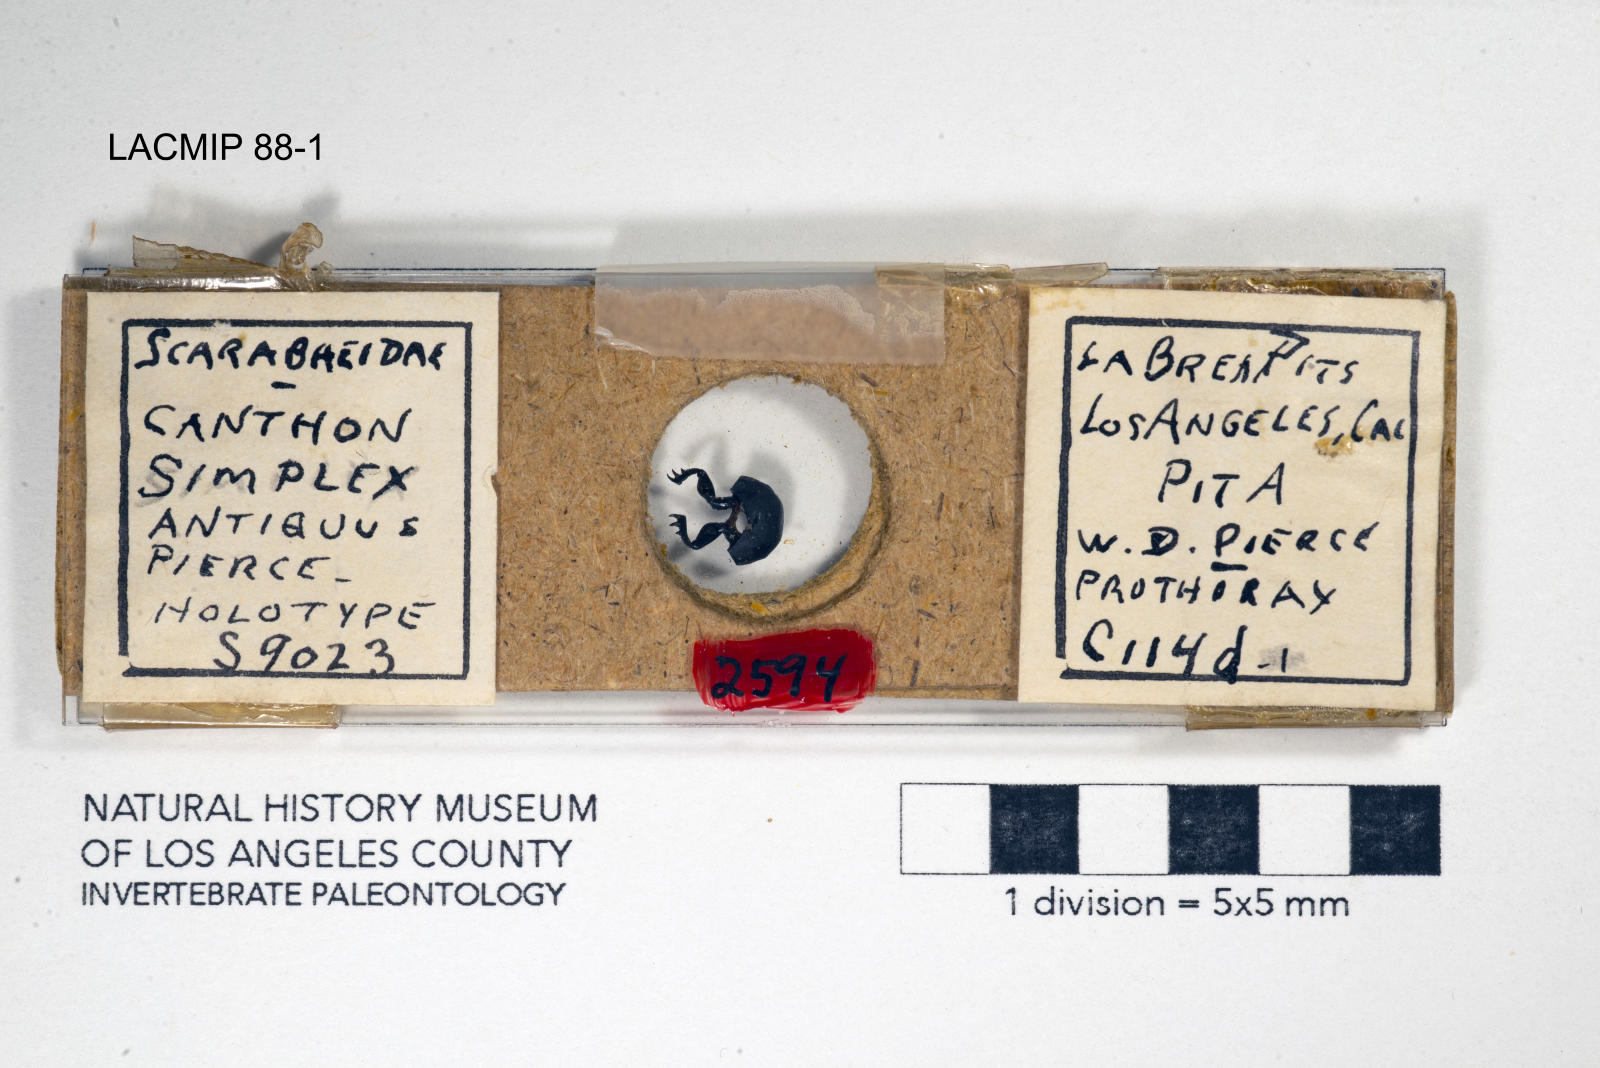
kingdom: Animalia
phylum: Arthropoda
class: Insecta
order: Coleoptera
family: Scarabaeidae
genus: Canthon
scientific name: Canthon simplex
